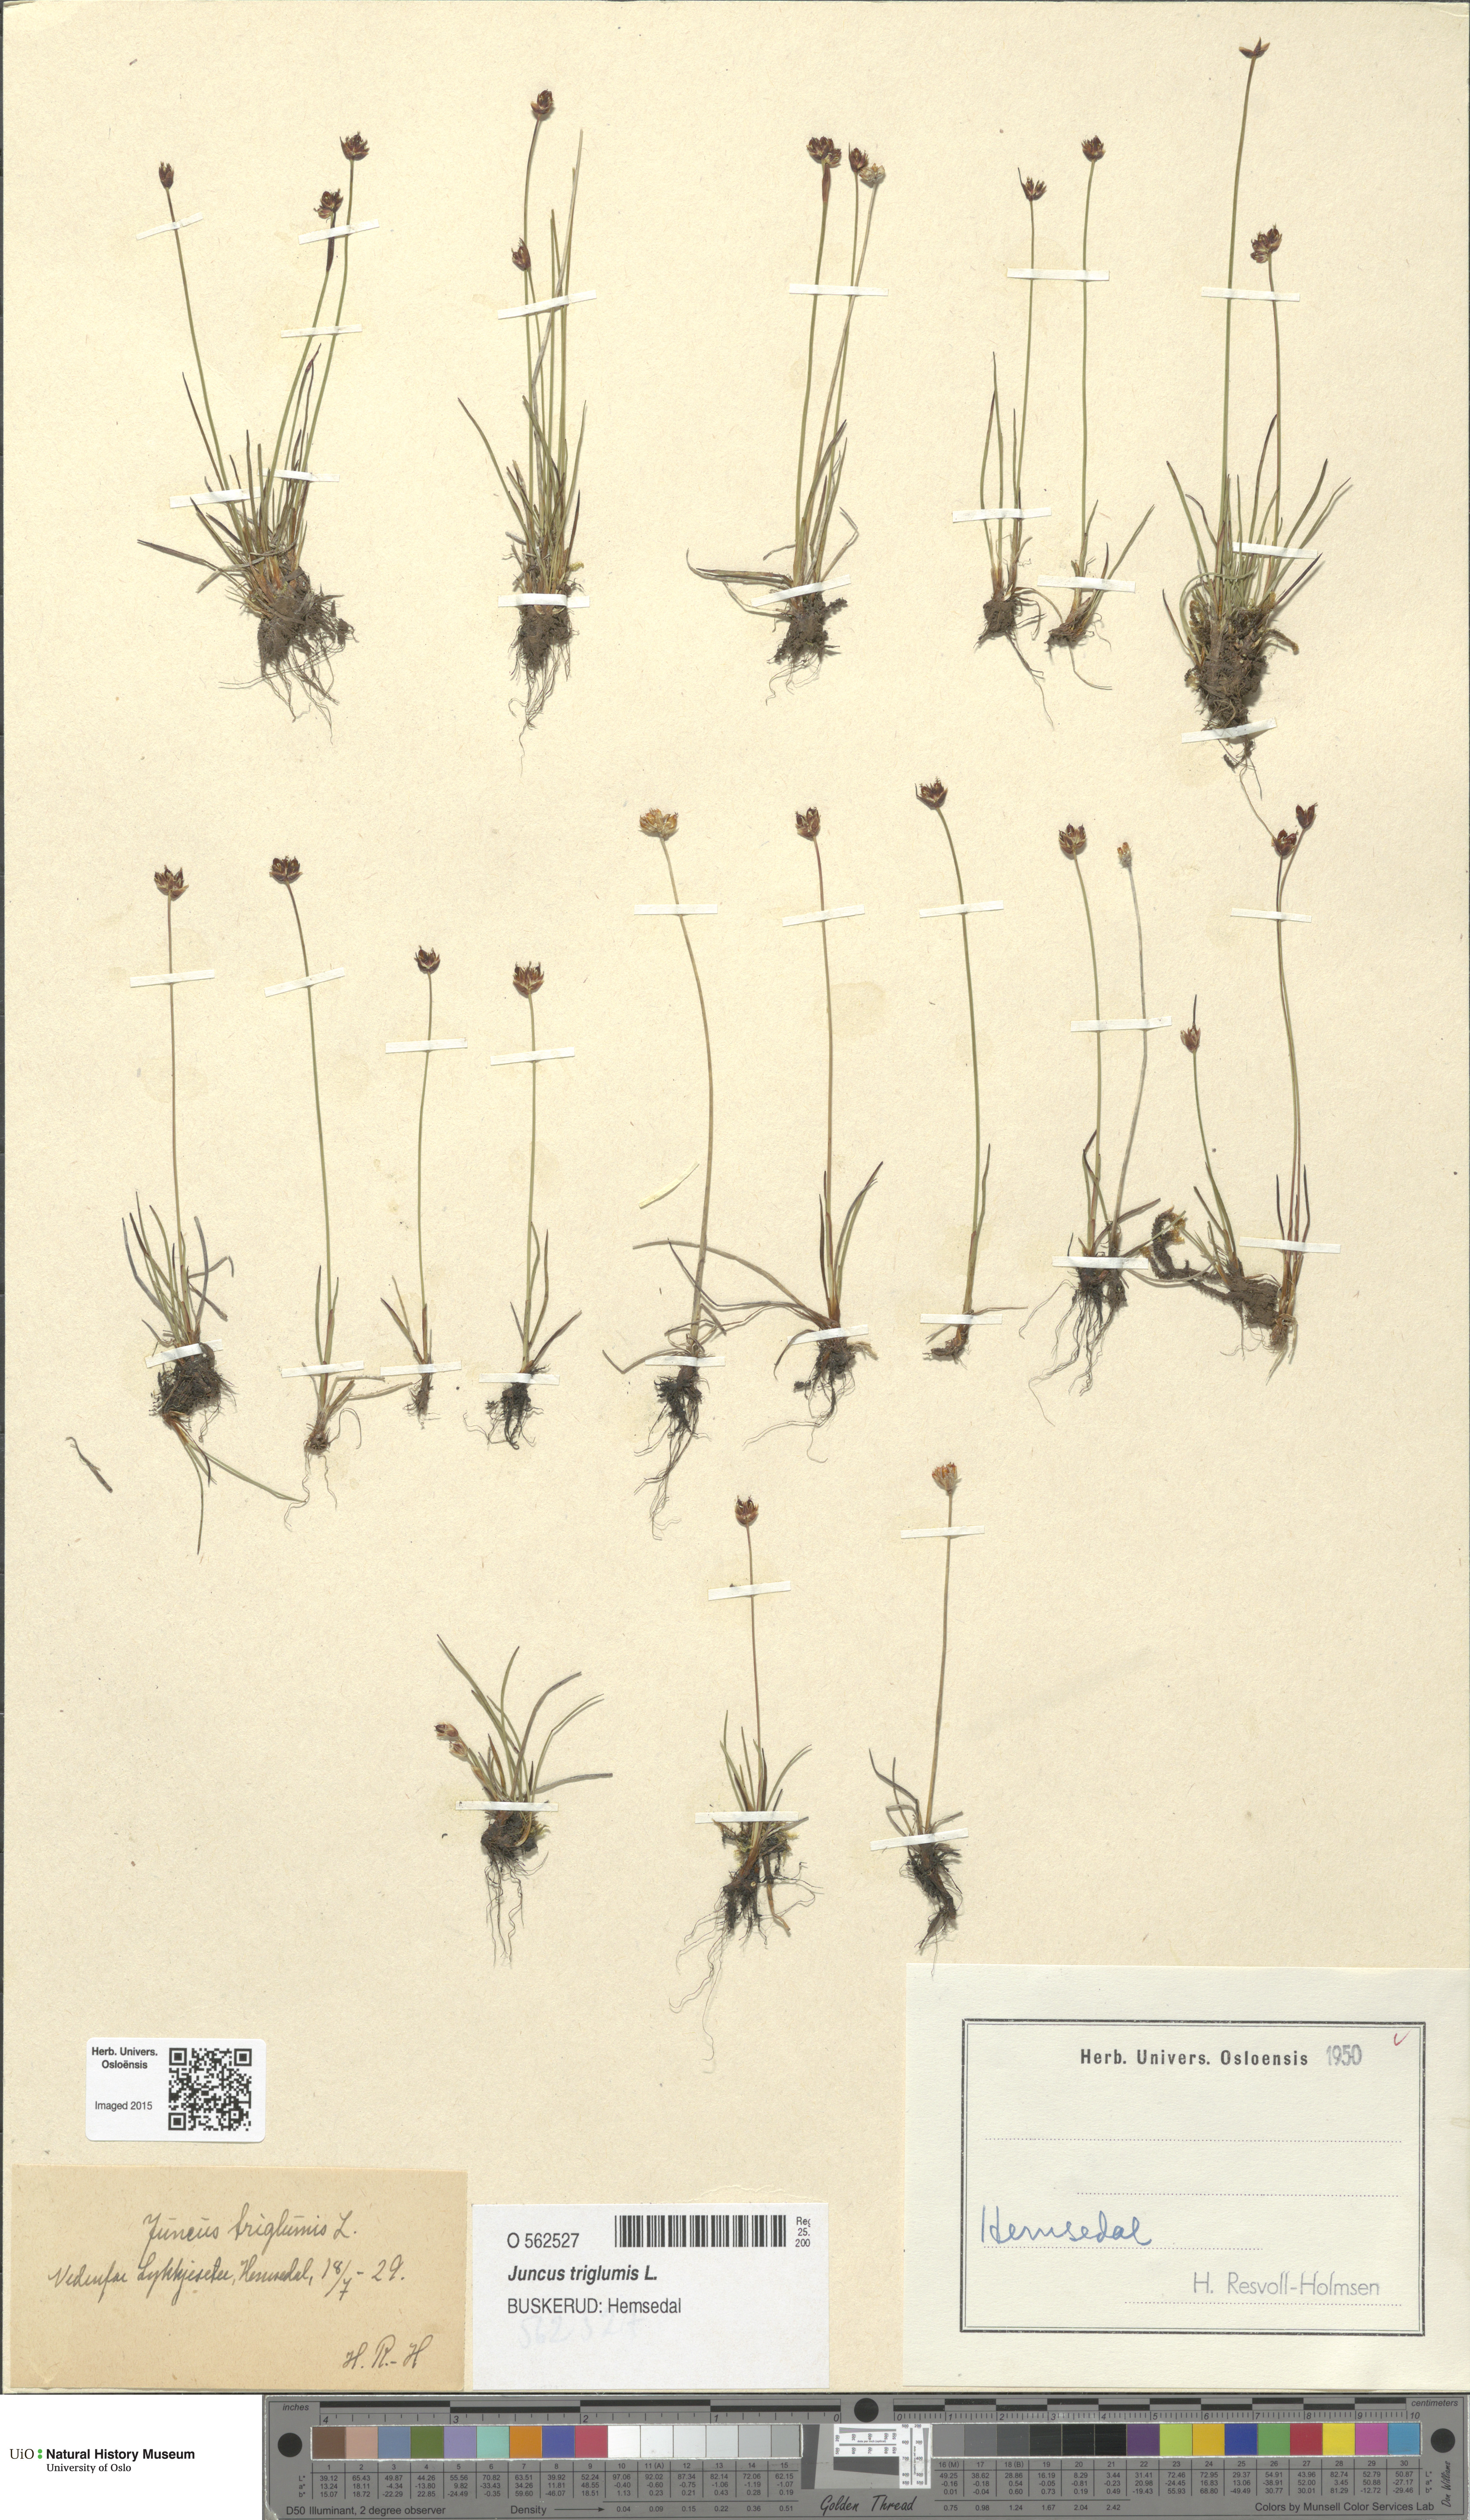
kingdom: Plantae
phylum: Tracheophyta
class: Liliopsida
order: Poales
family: Juncaceae
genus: Juncus
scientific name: Juncus triglumis
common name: Three-flowered rush
